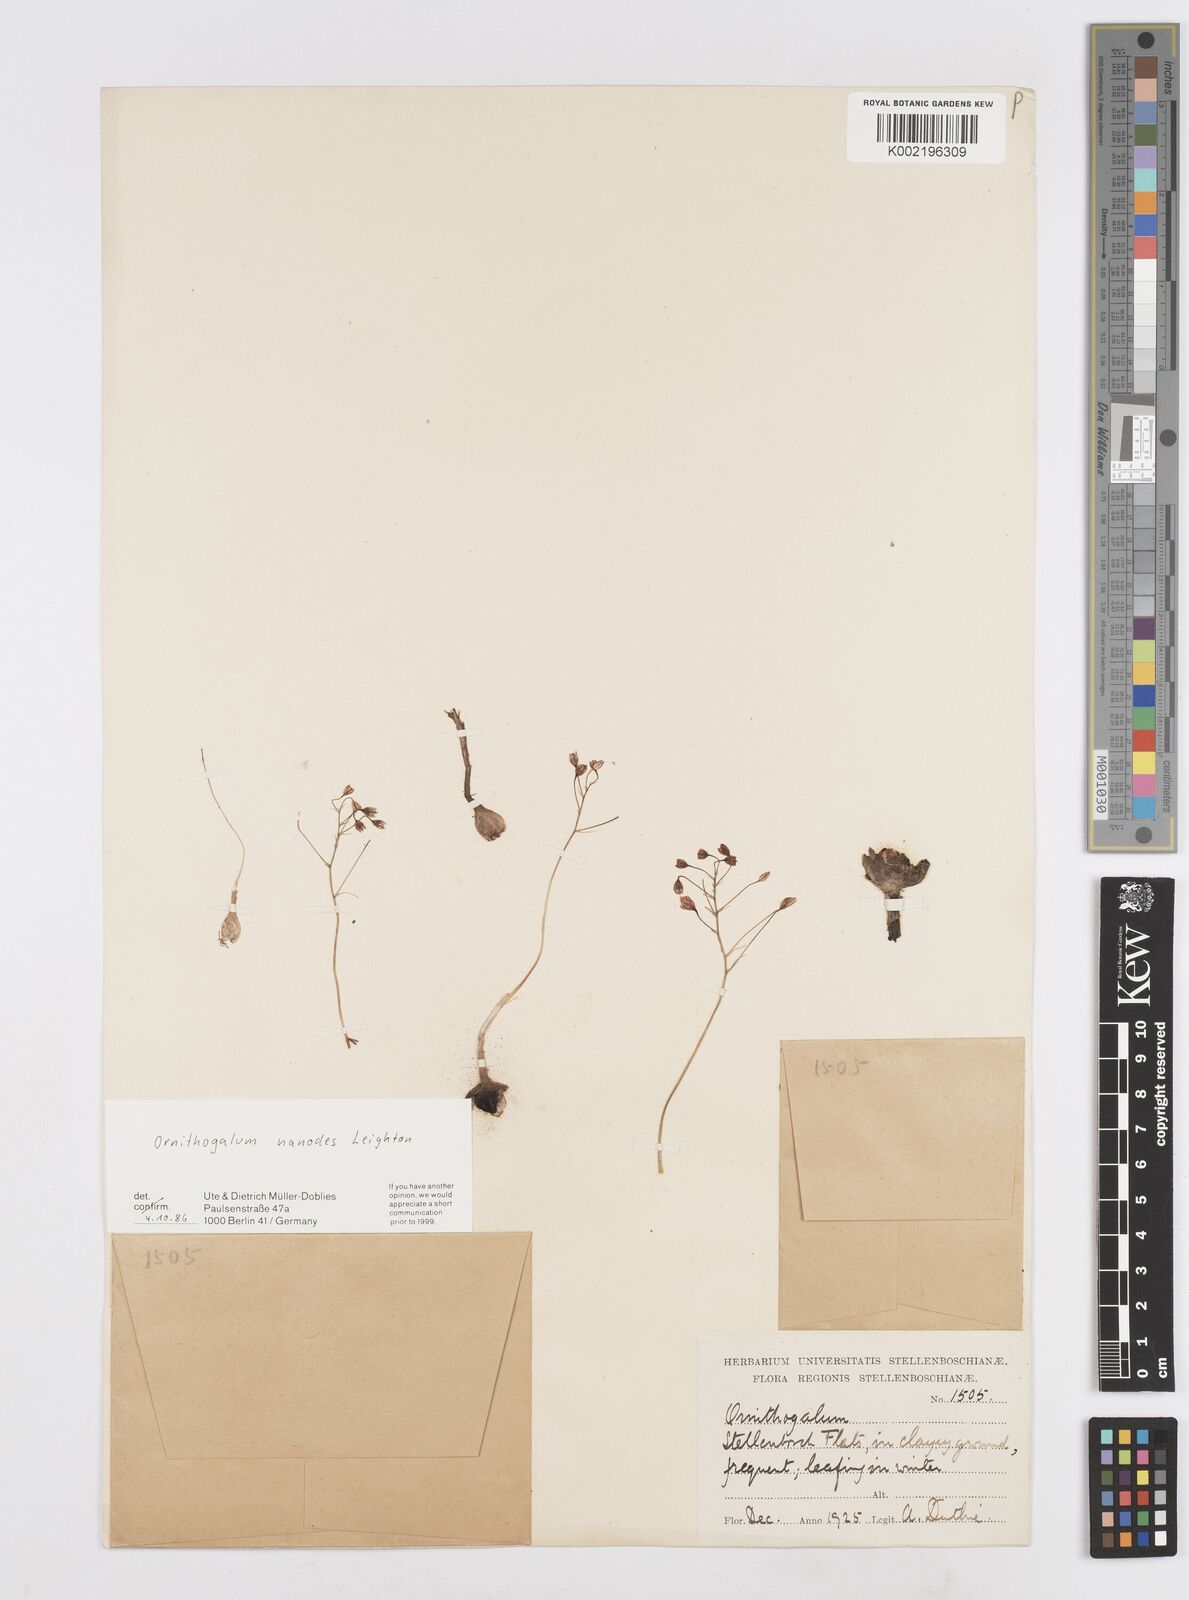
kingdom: Plantae
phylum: Tracheophyta
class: Liliopsida
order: Asparagales
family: Asparagaceae
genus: Ornithogalum
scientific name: Ornithogalum nanodes
